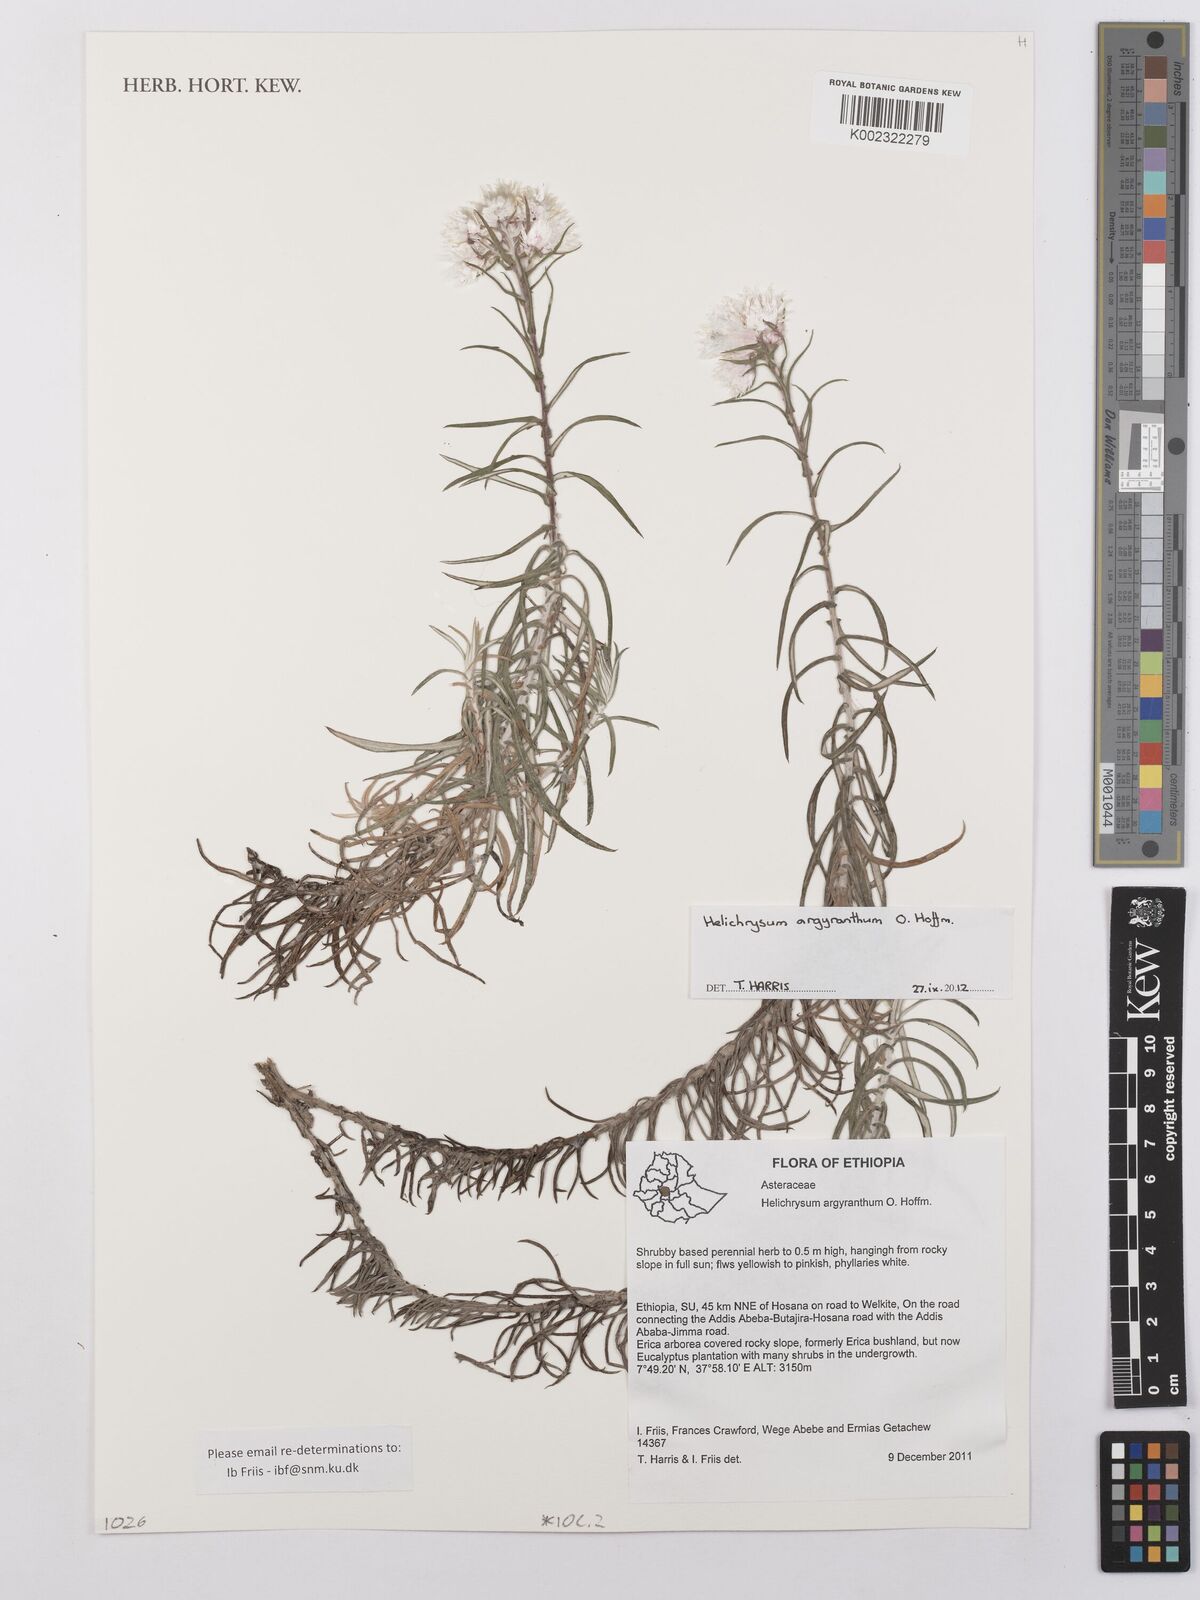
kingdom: Plantae
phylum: Tracheophyta
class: Magnoliopsida
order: Asterales
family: Asteraceae
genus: Helichrysum
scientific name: Helichrysum argyranthum
